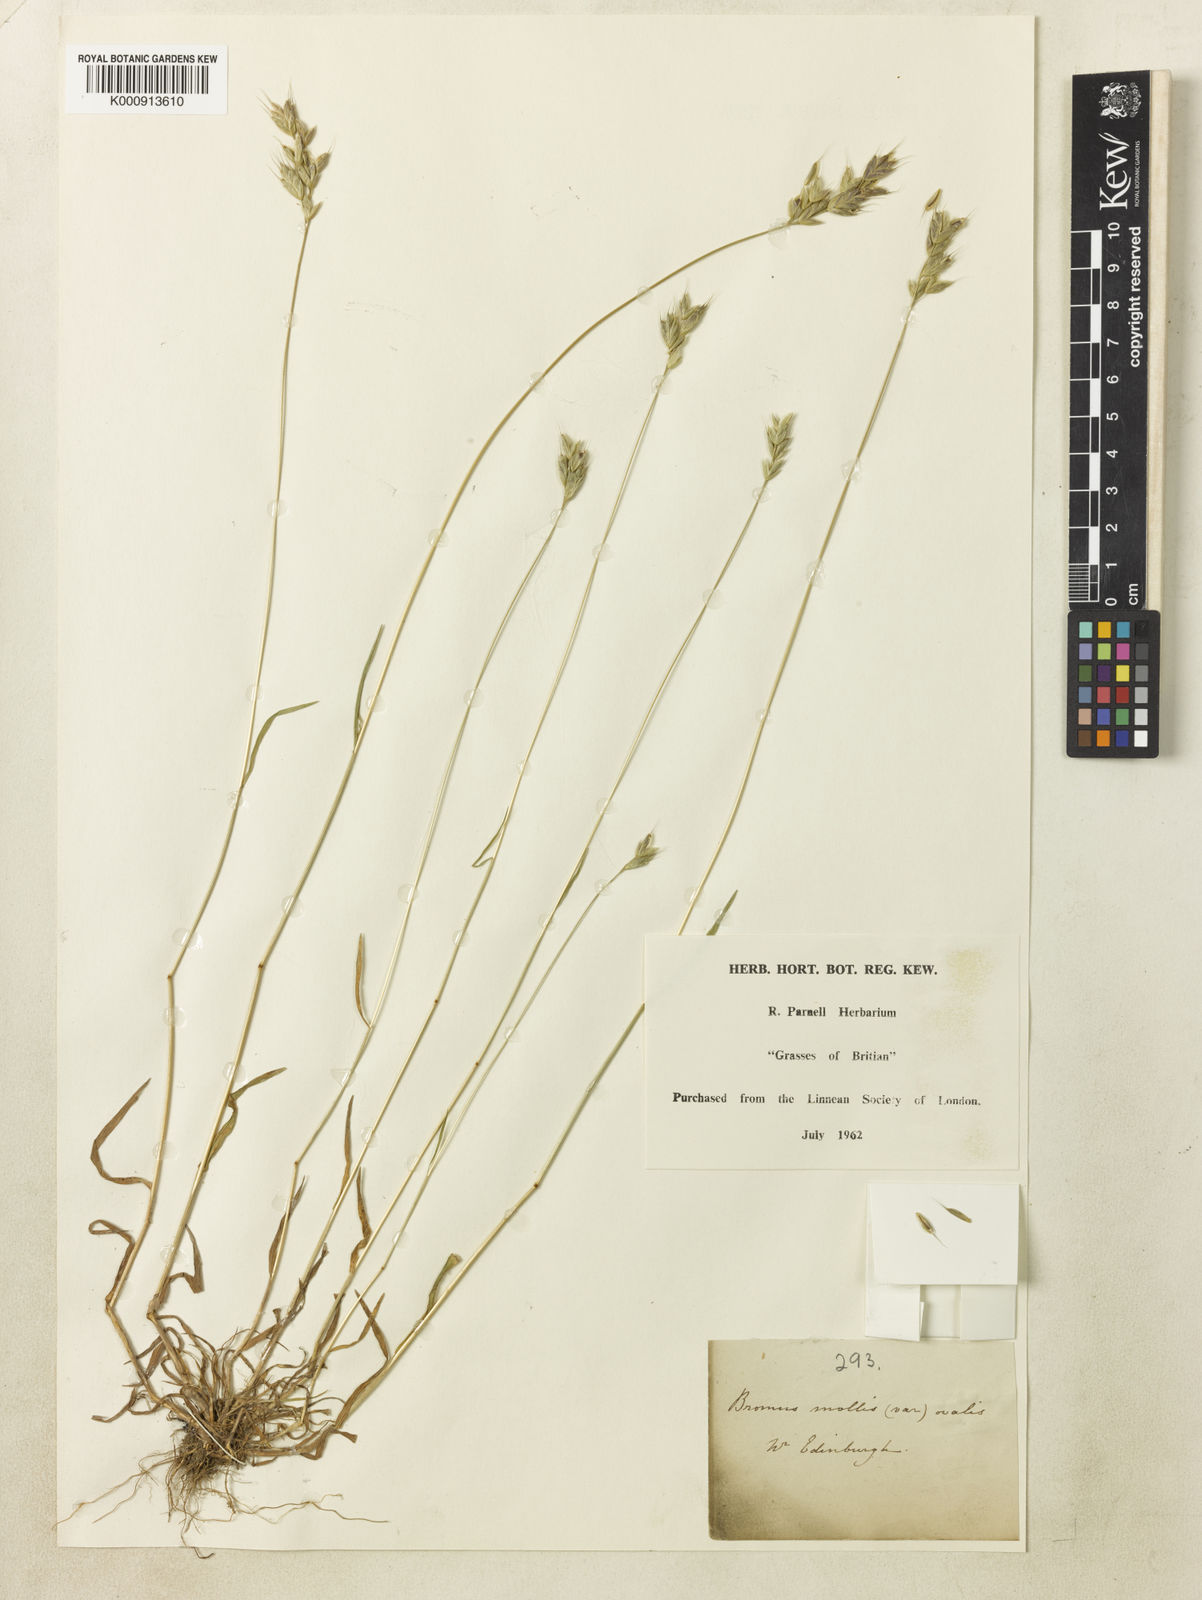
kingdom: Plantae
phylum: Tracheophyta
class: Liliopsida
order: Poales
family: Poaceae
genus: Bromus
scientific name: Bromus hordeaceus
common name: Soft brome
